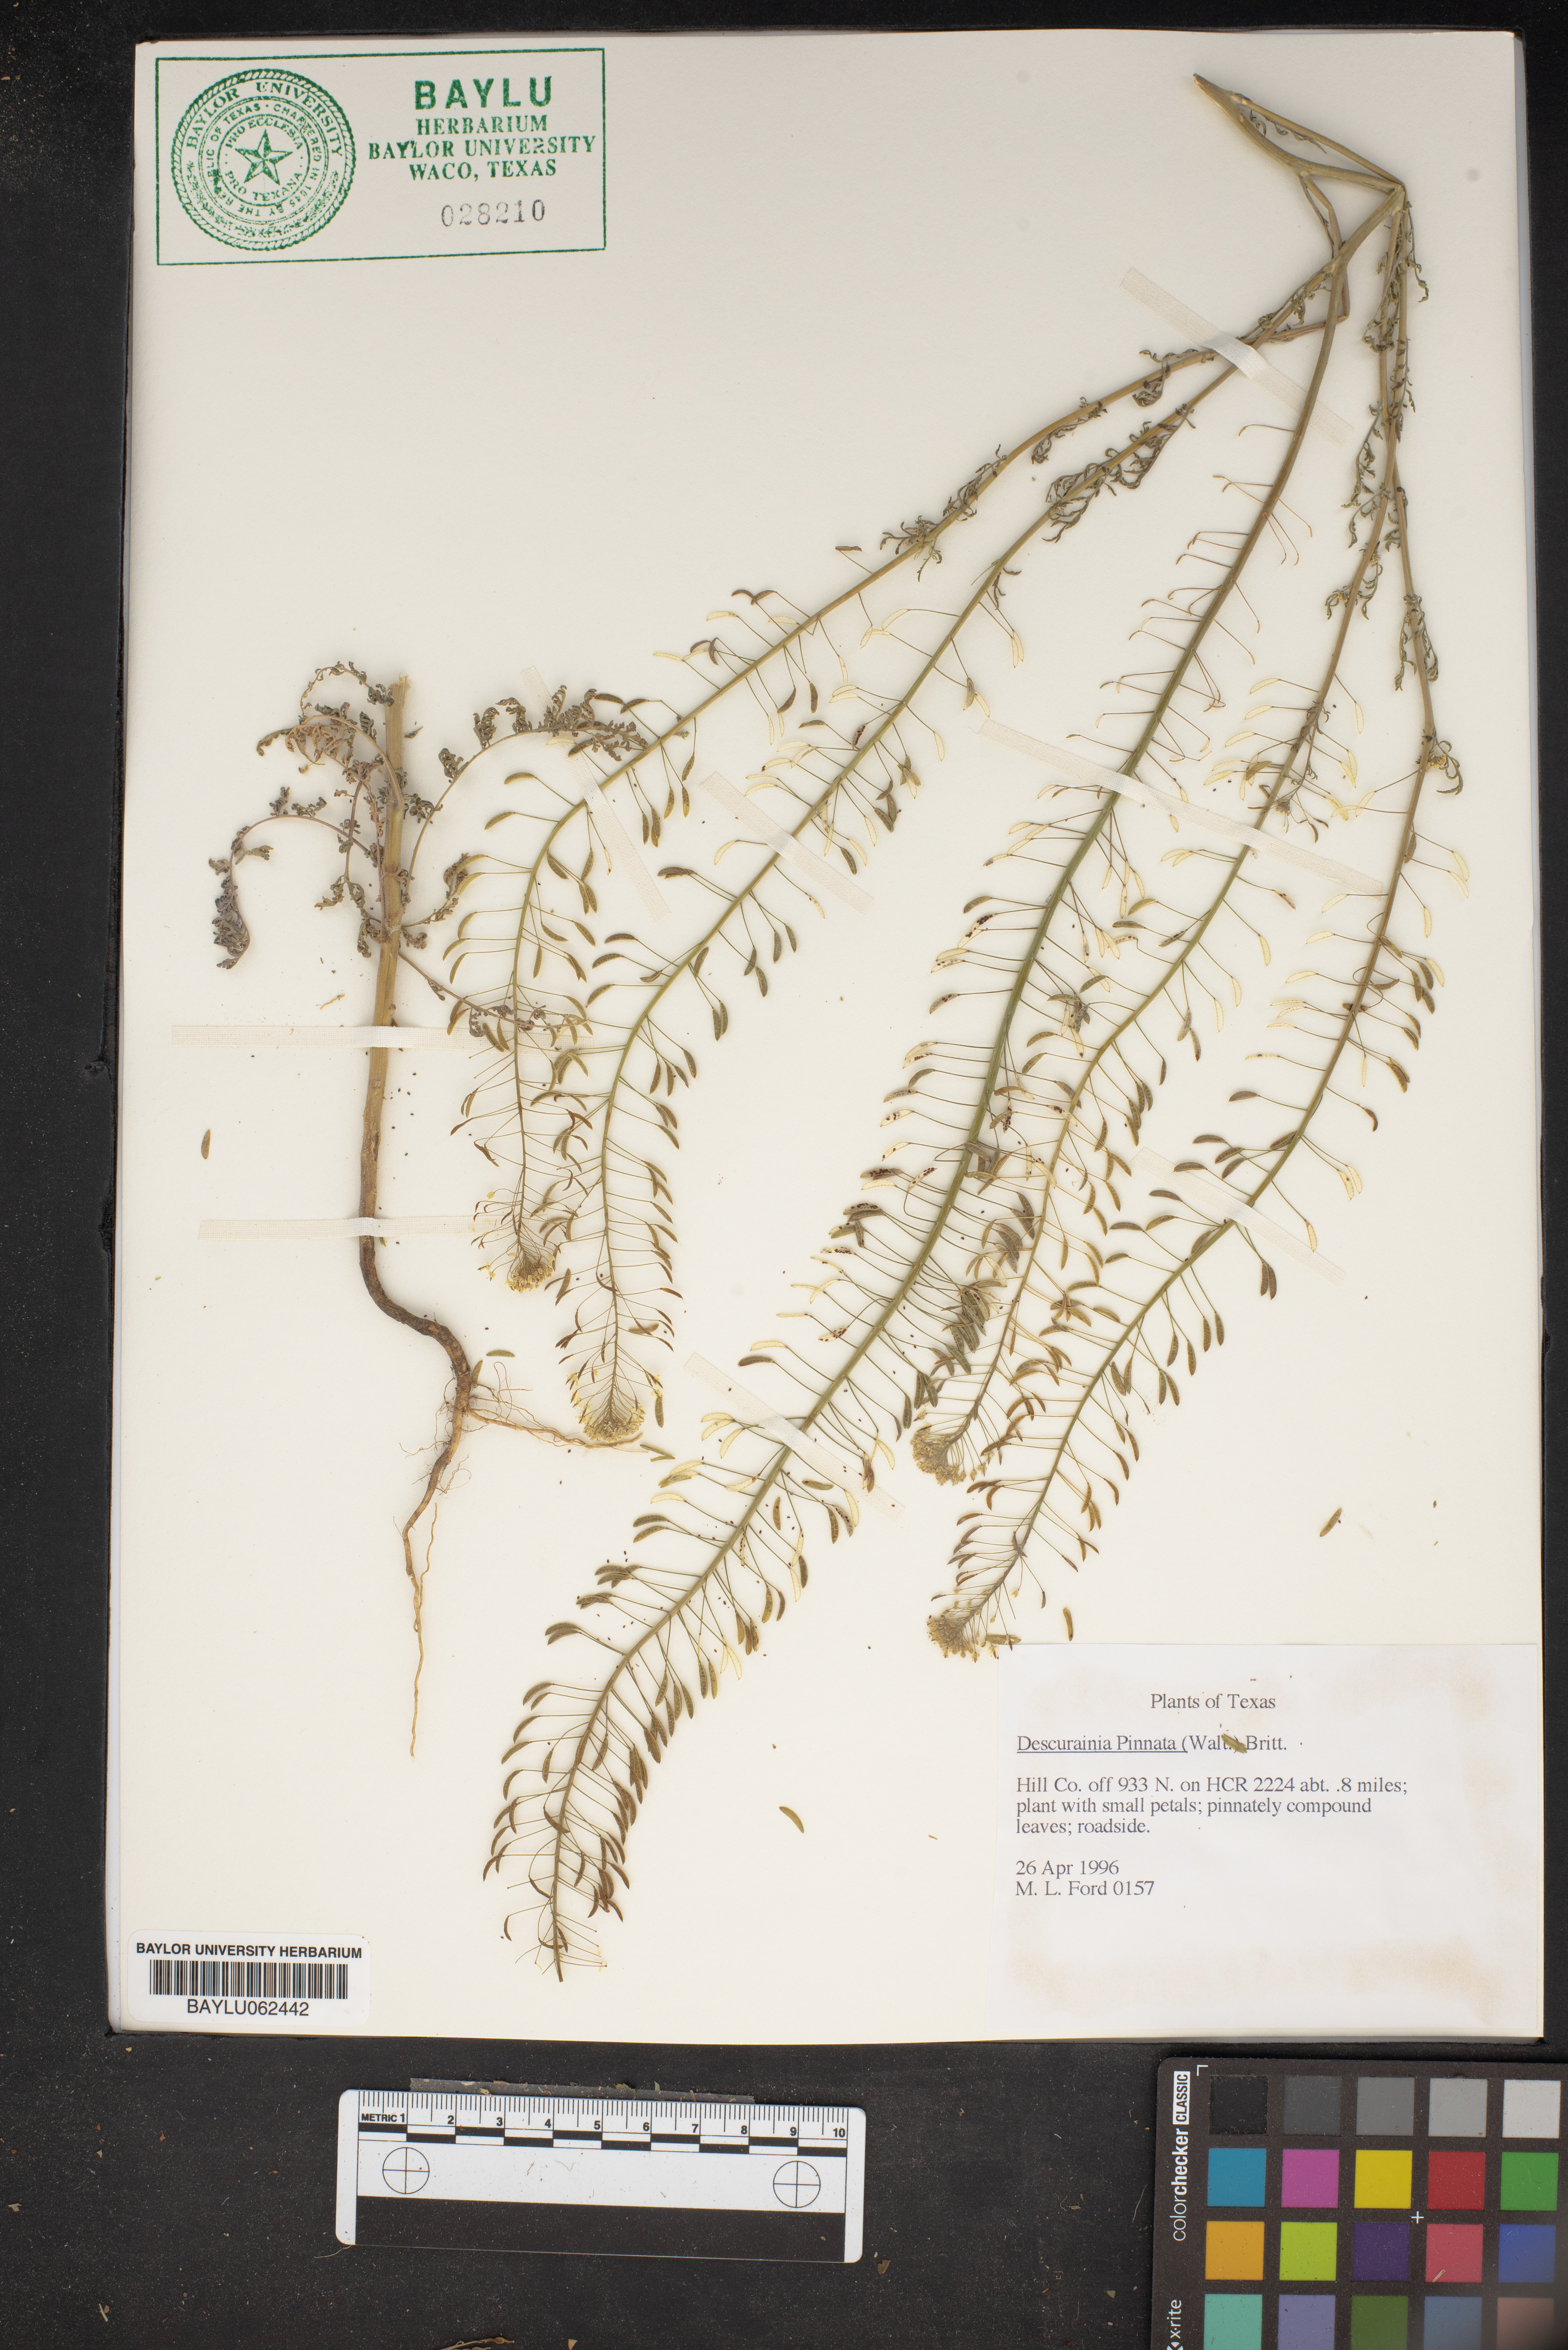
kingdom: Plantae
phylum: Tracheophyta
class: Magnoliopsida
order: Brassicales
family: Brassicaceae
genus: Descurainia
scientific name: Descurainia pinnata
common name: Western tansy mustard
